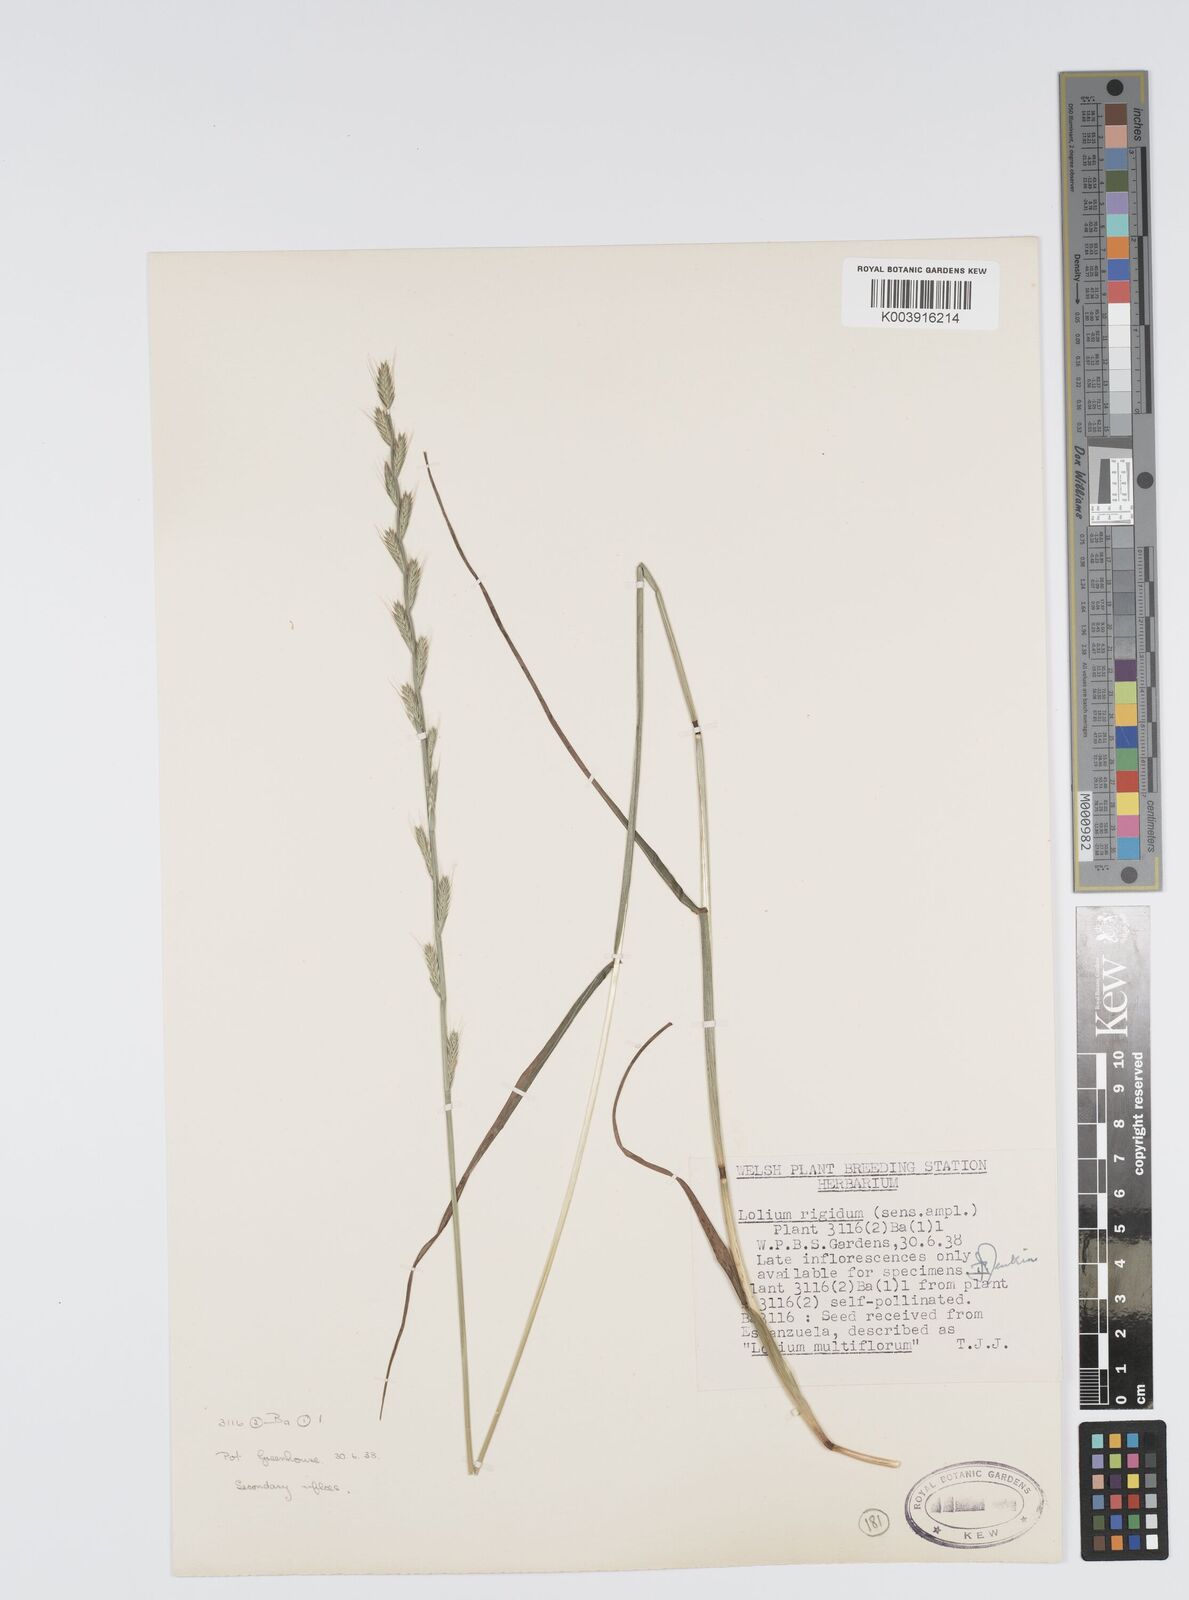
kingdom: Plantae
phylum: Tracheophyta
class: Liliopsida
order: Poales
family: Poaceae
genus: Lolium
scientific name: Lolium rigidum
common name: Wimmera ryegrass
